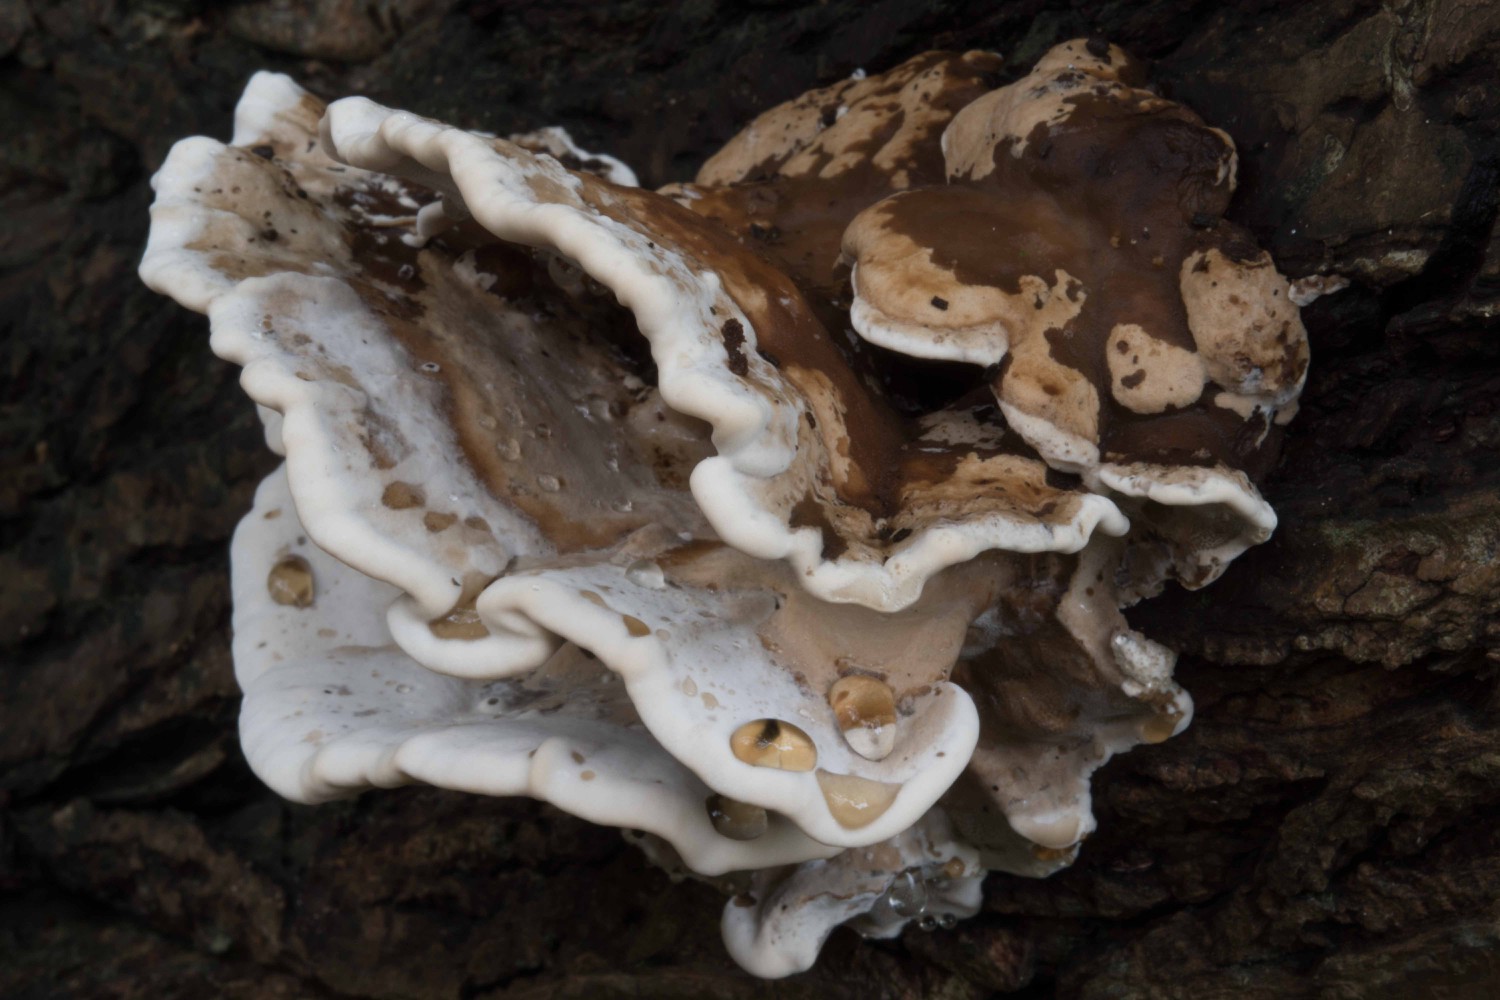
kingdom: Fungi
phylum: Basidiomycota
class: Agaricomycetes
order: Polyporales
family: Phanerochaetaceae
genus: Bjerkandera
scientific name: Bjerkandera fumosa
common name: grågul sodporesvamp
